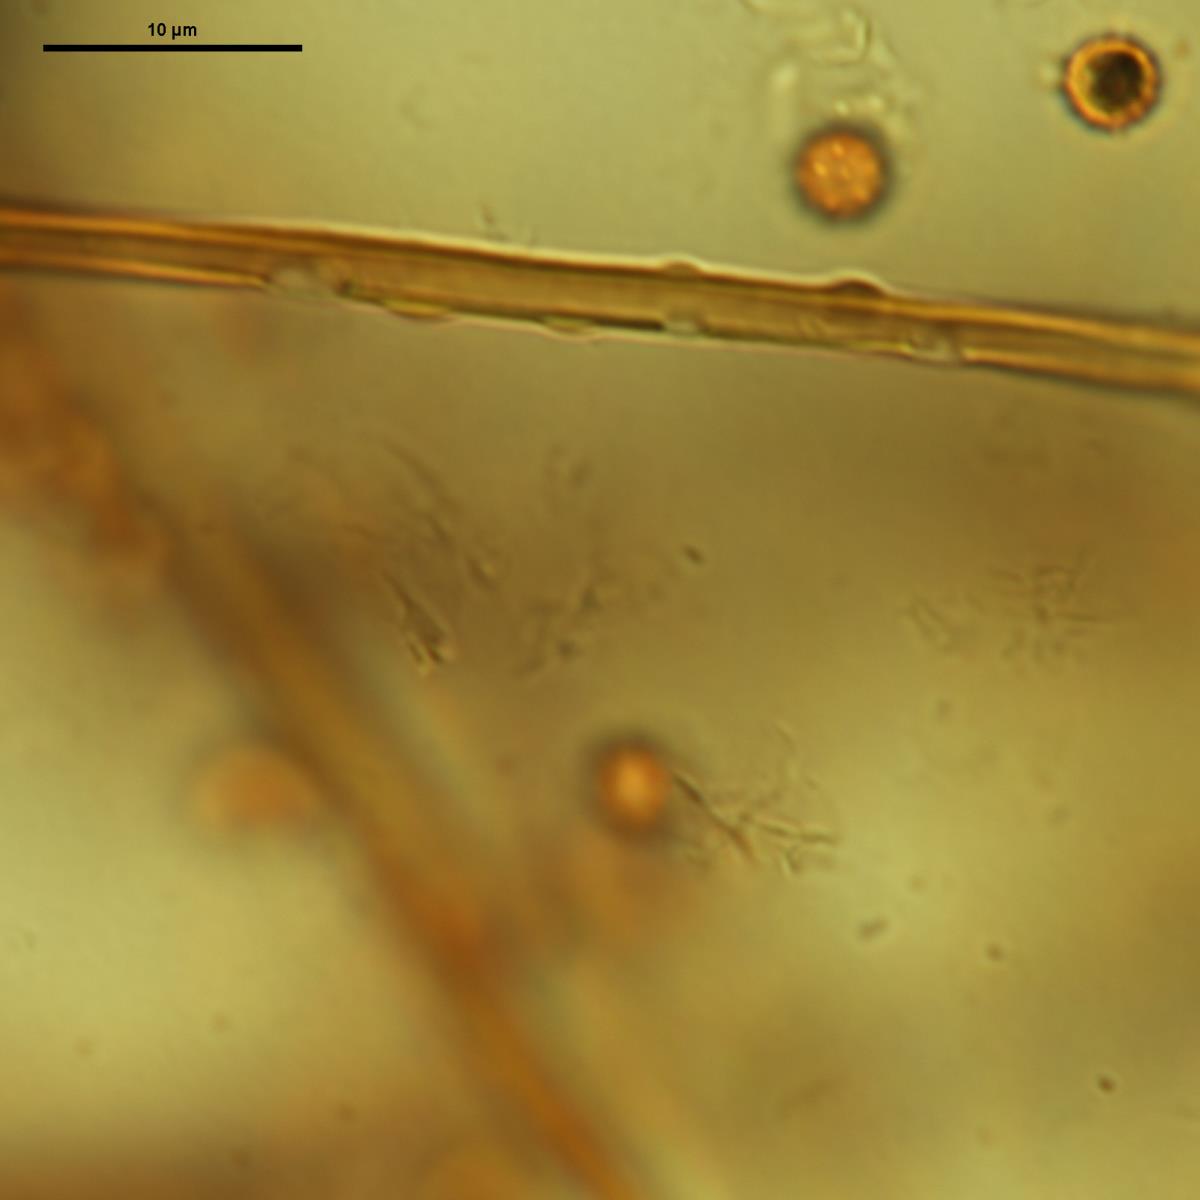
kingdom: Fungi
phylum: Basidiomycota
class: Agaricomycetes
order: Agaricales
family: Lycoperdaceae
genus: Calvatia
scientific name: Calvatia
